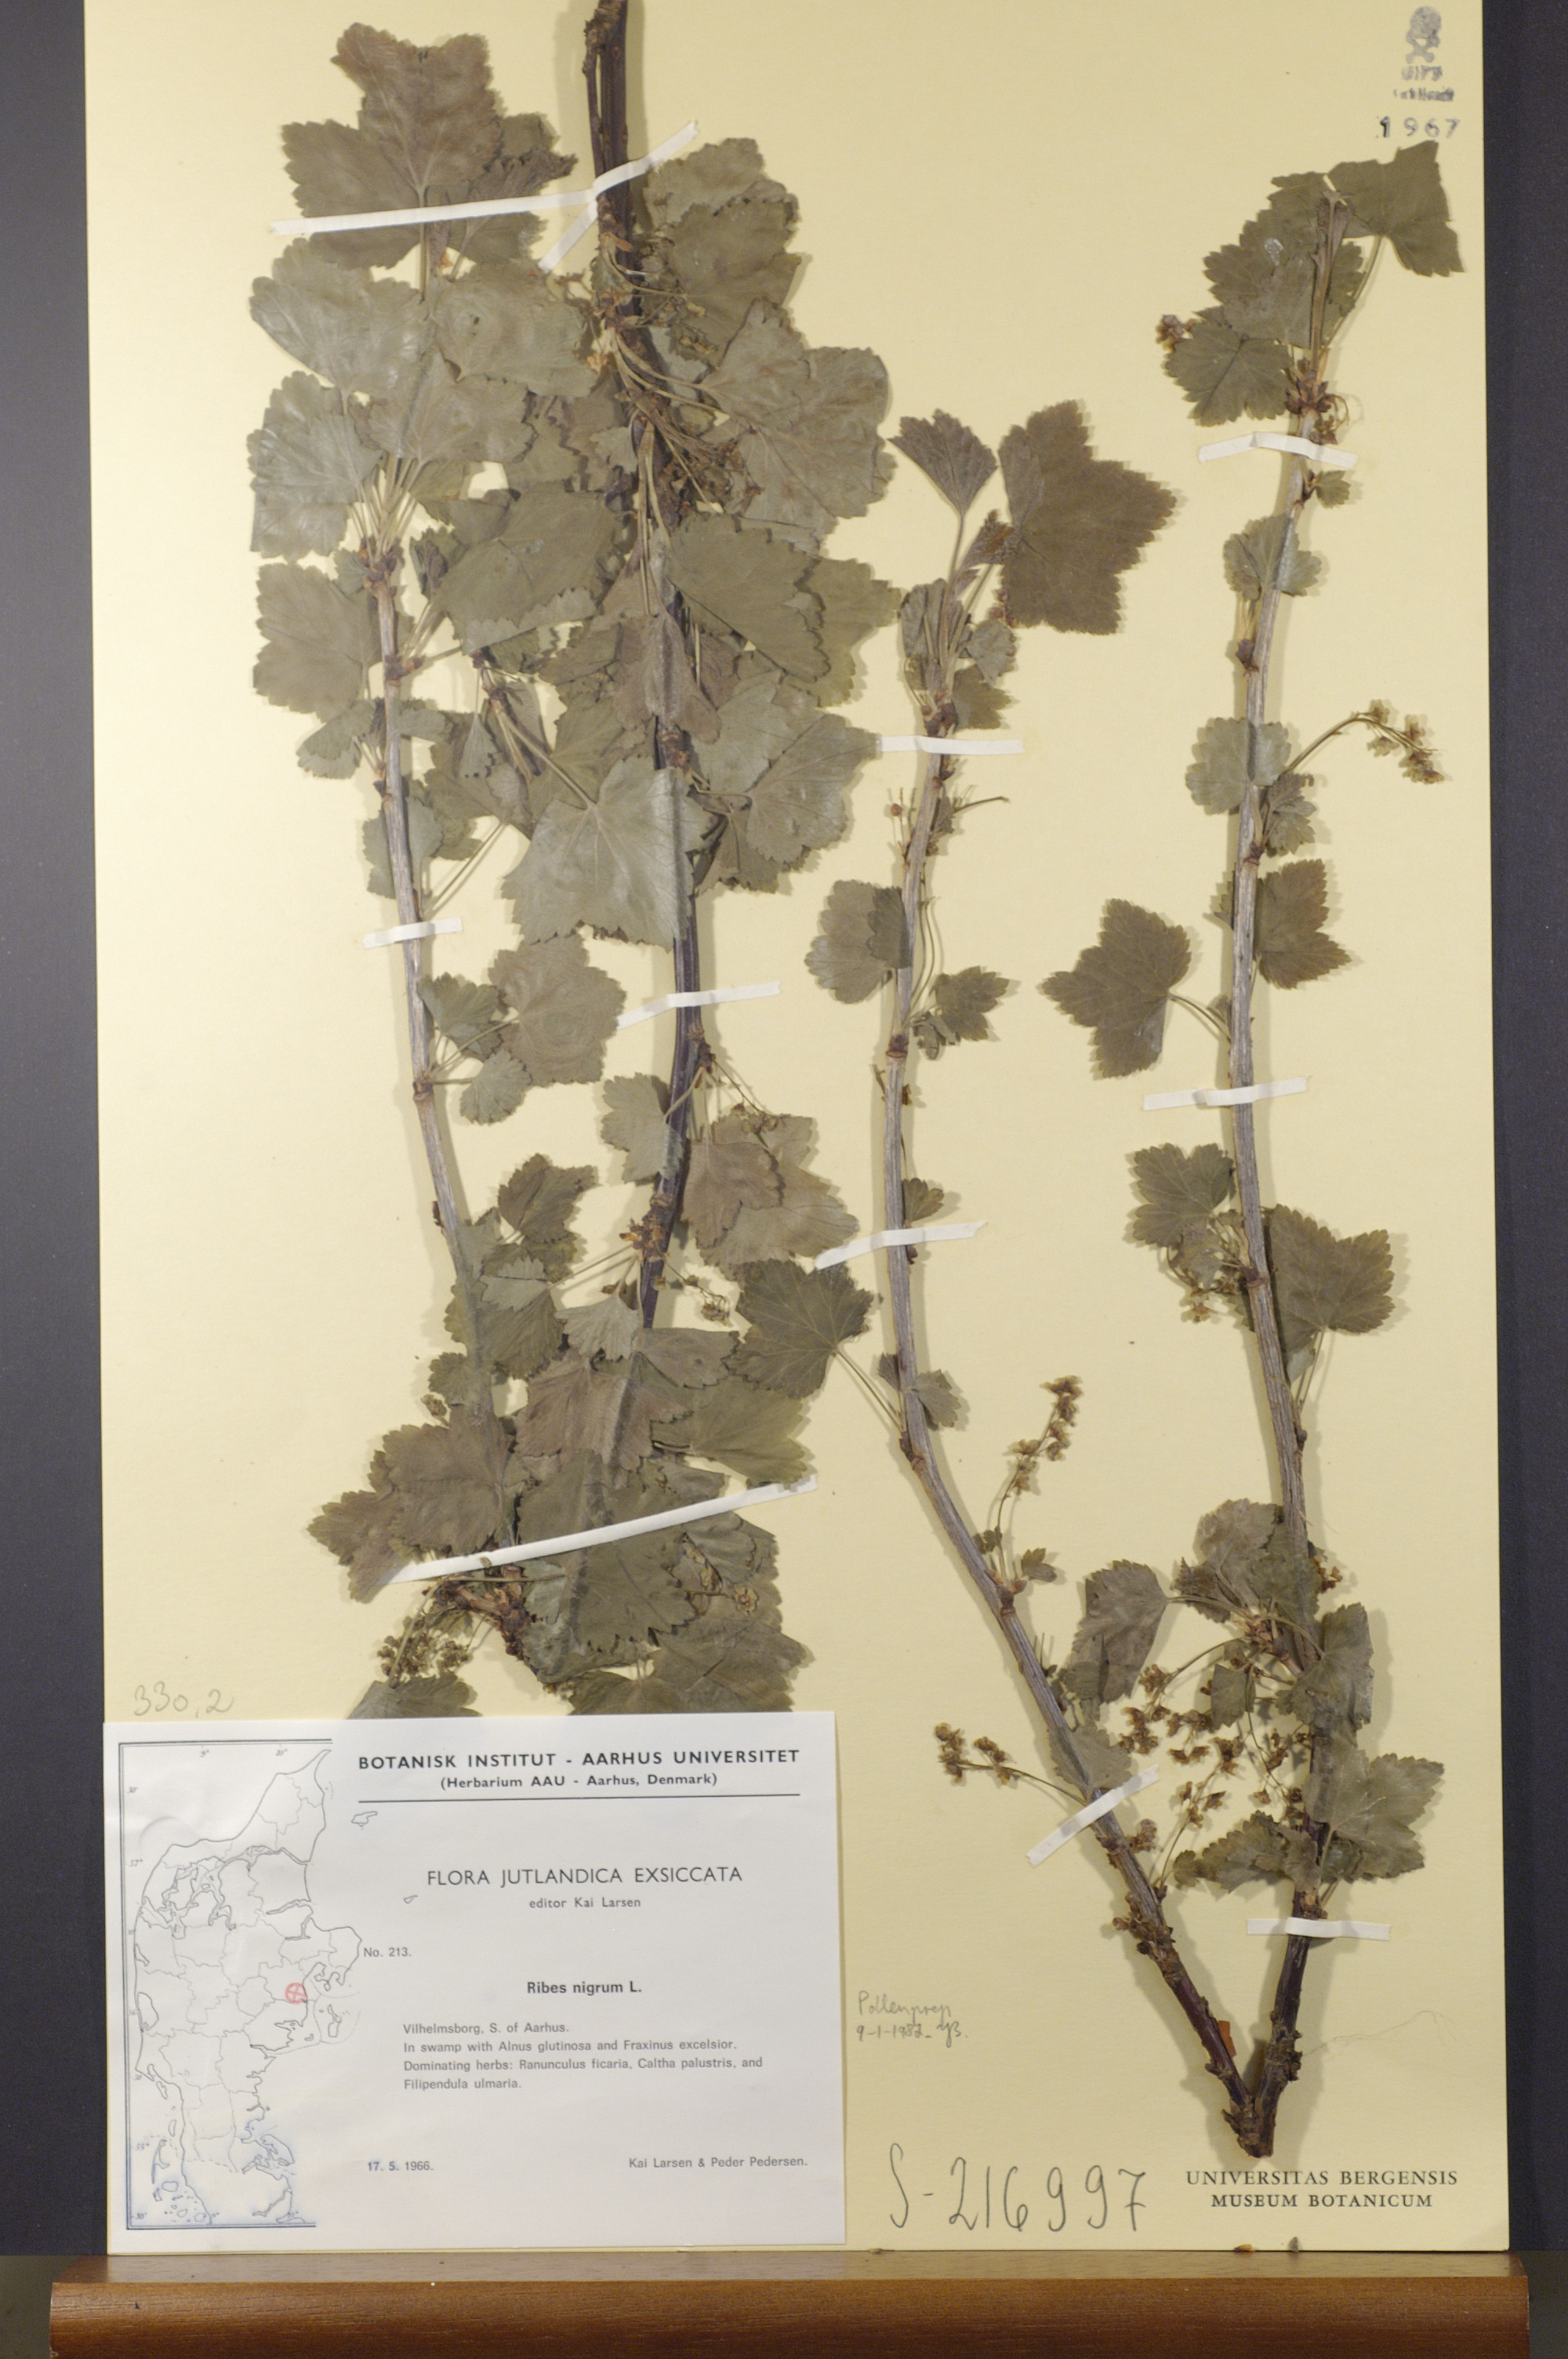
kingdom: Plantae
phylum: Tracheophyta
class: Magnoliopsida
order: Saxifragales
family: Grossulariaceae
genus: Ribes
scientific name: Ribes nigrum
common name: Black currant
